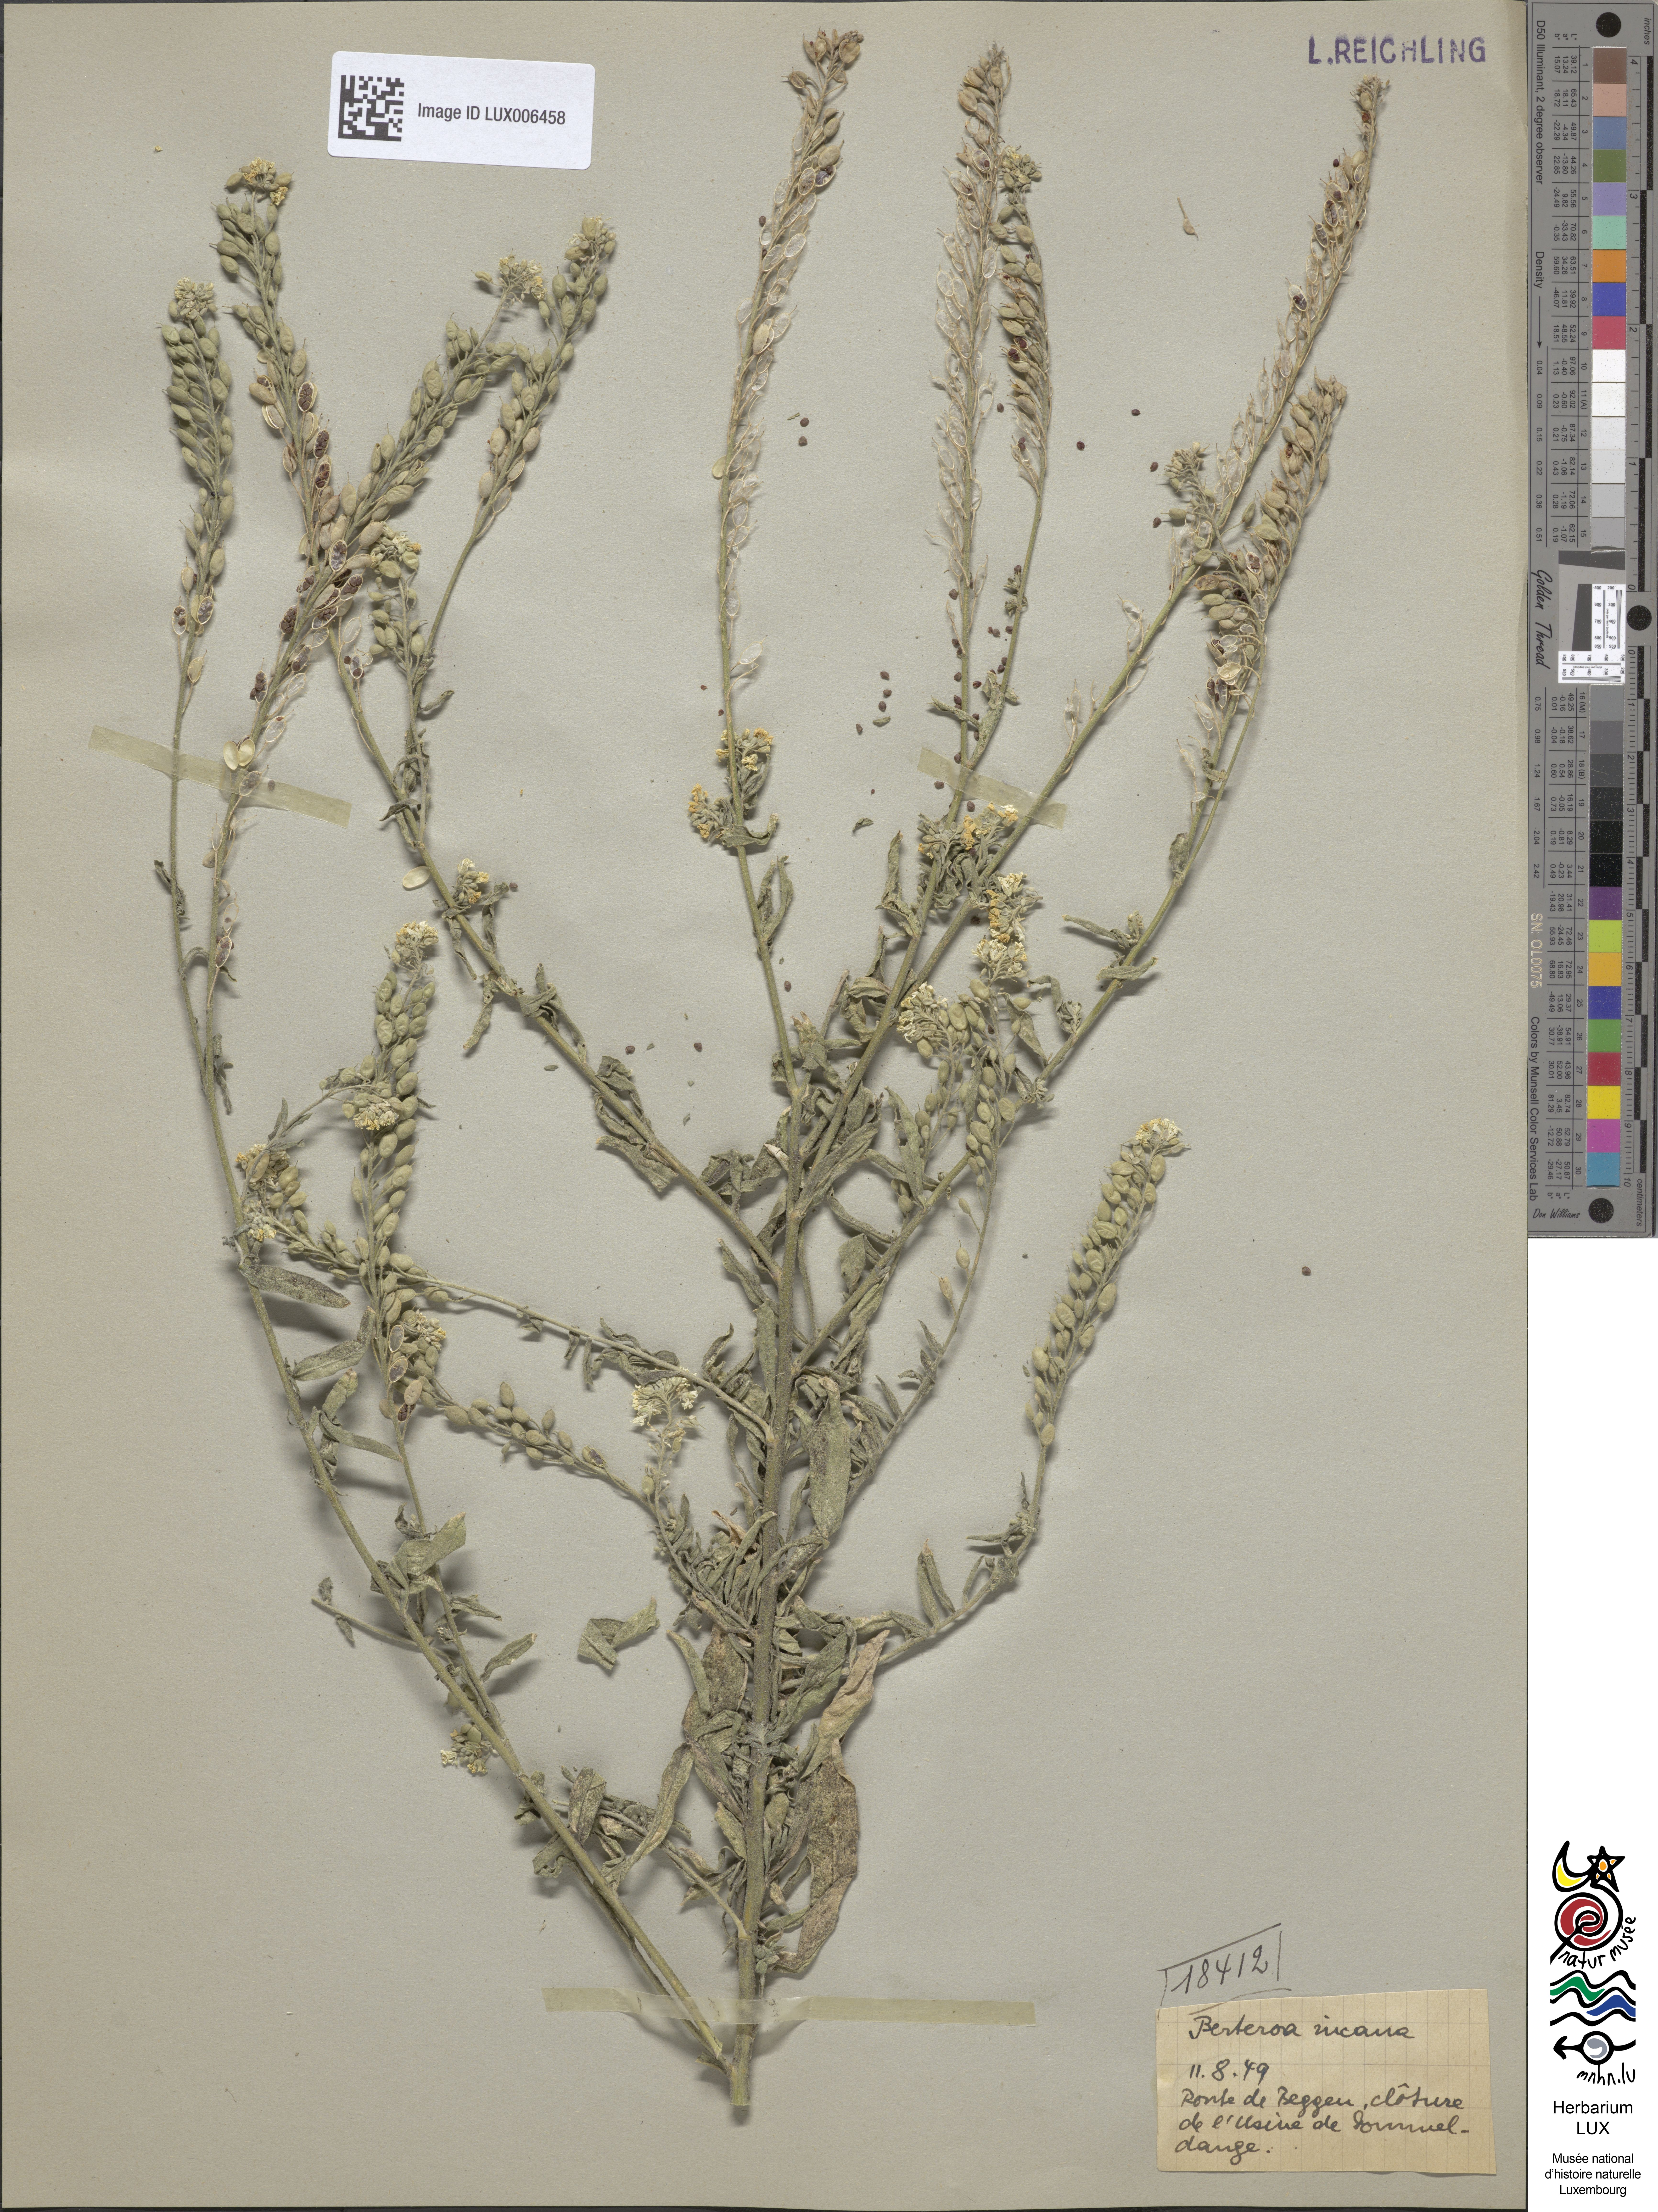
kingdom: Plantae
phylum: Tracheophyta
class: Magnoliopsida
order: Brassicales
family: Brassicaceae
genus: Berteroa
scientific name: Berteroa incana
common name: Hoary alison
